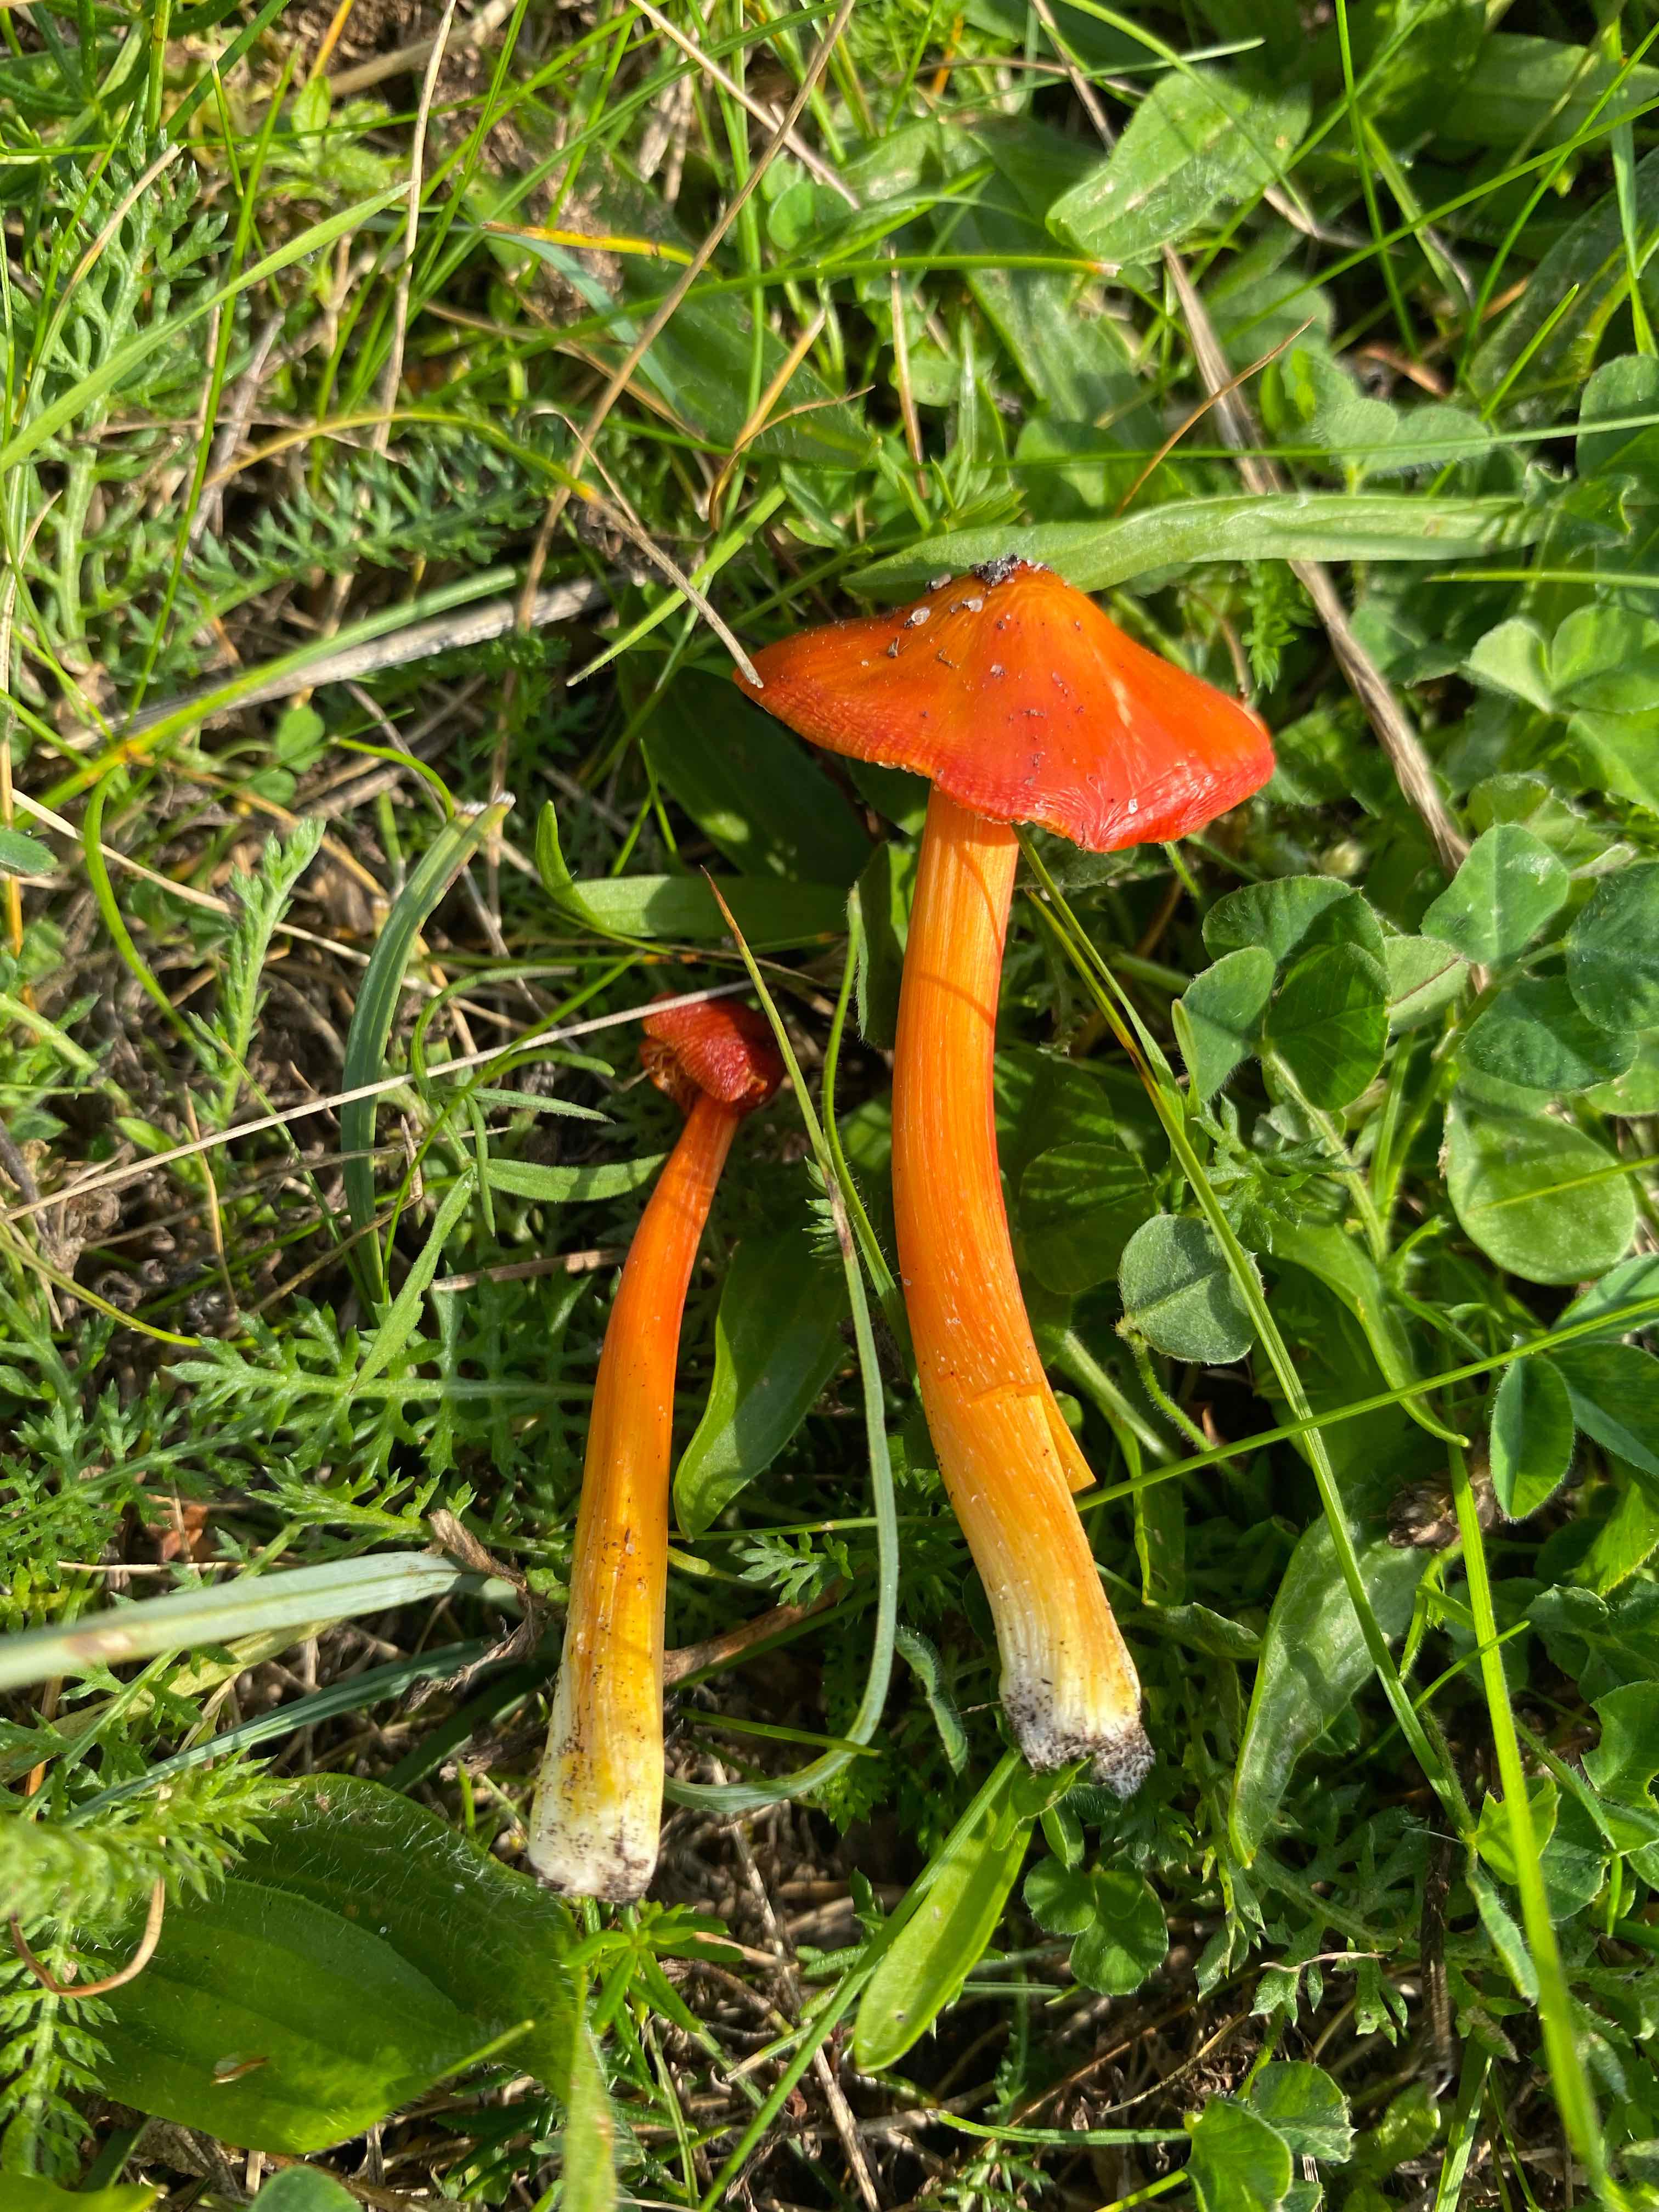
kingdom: Fungi
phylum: Basidiomycota
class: Agaricomycetes
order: Agaricales
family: Hygrophoraceae
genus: Hygrocybe
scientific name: Hygrocybe
